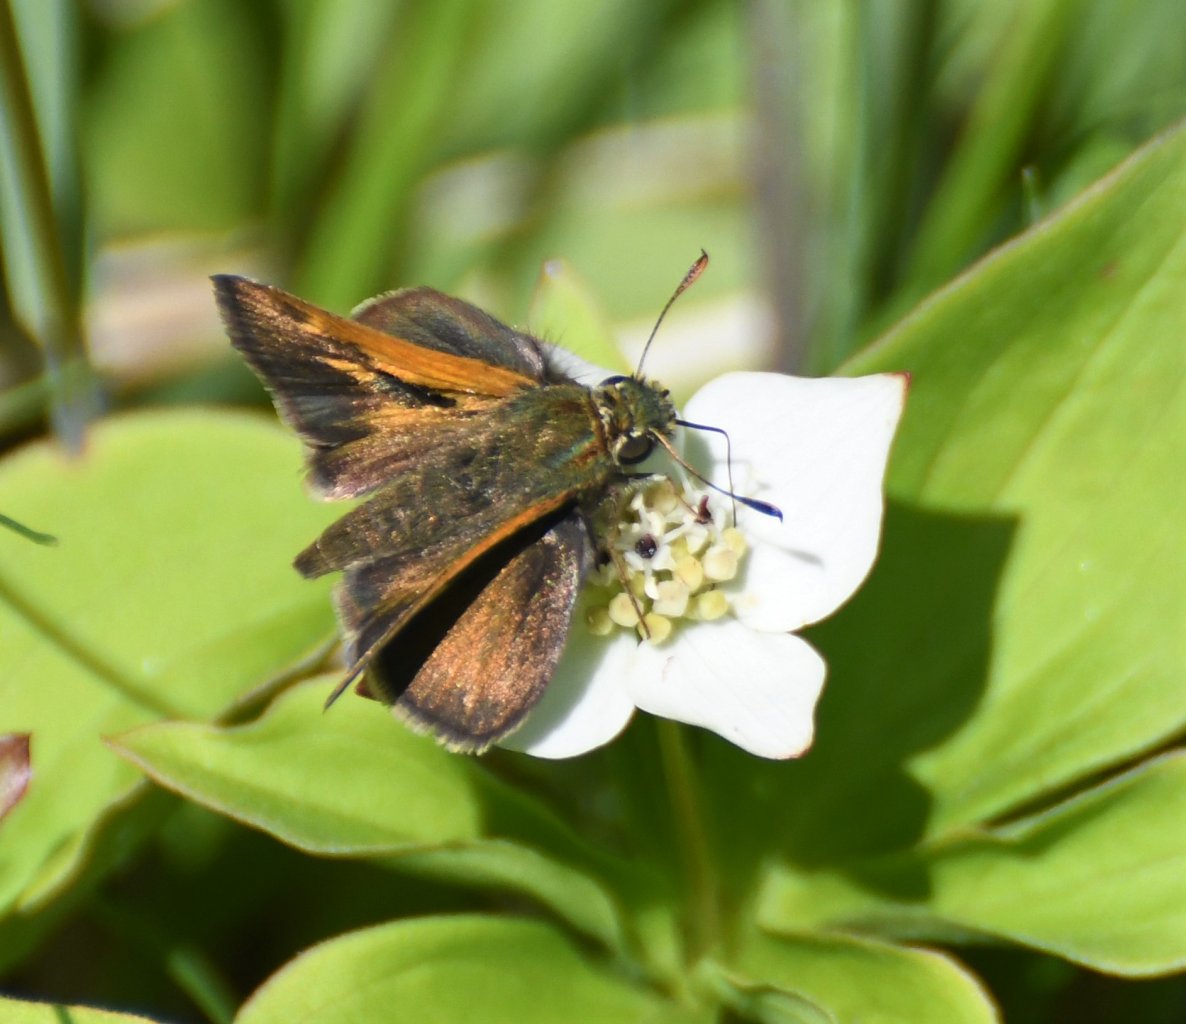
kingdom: Animalia
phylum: Arthropoda
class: Insecta
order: Lepidoptera
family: Hesperiidae
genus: Polites
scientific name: Polites themistocles
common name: Tawny-edged Skipper
